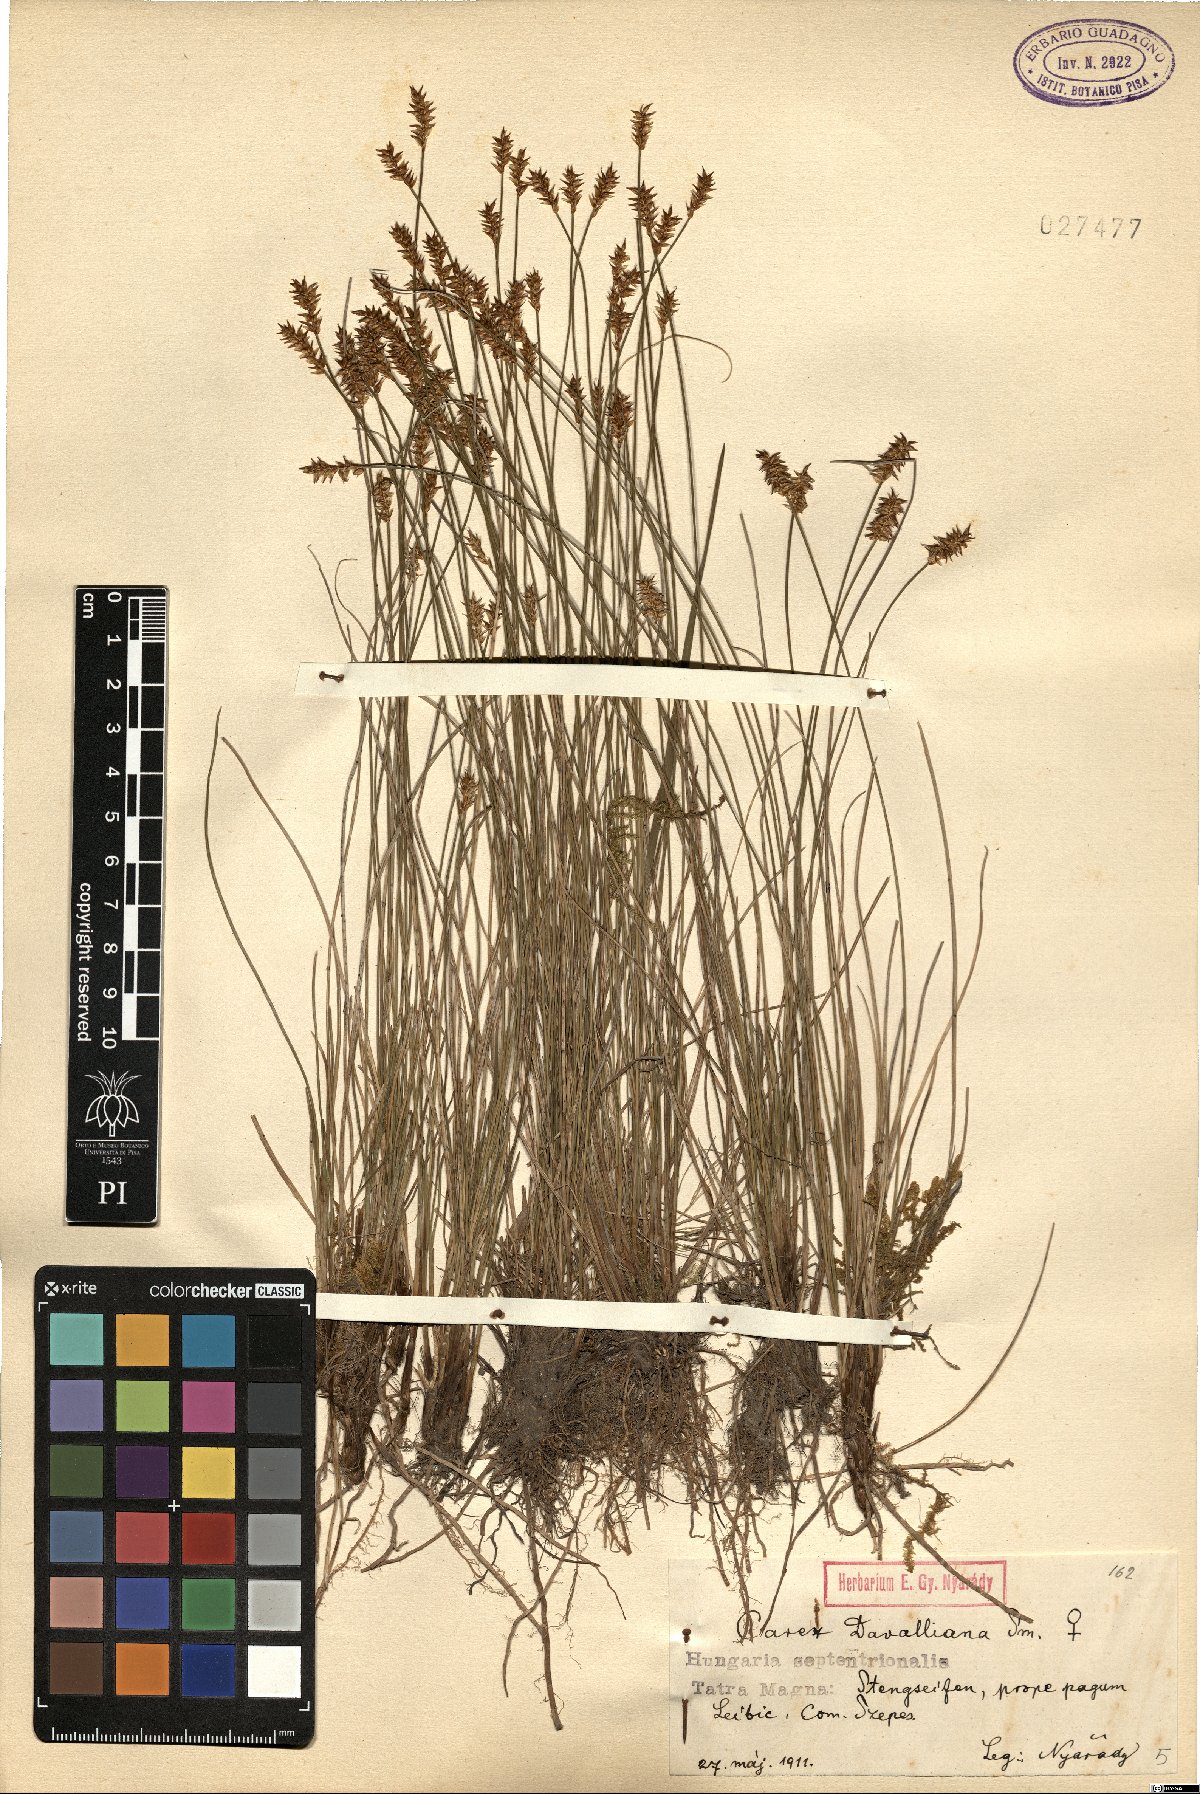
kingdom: Plantae
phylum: Tracheophyta
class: Liliopsida
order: Poales
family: Cyperaceae
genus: Carex
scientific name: Carex davalliana
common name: Davall's sedge
